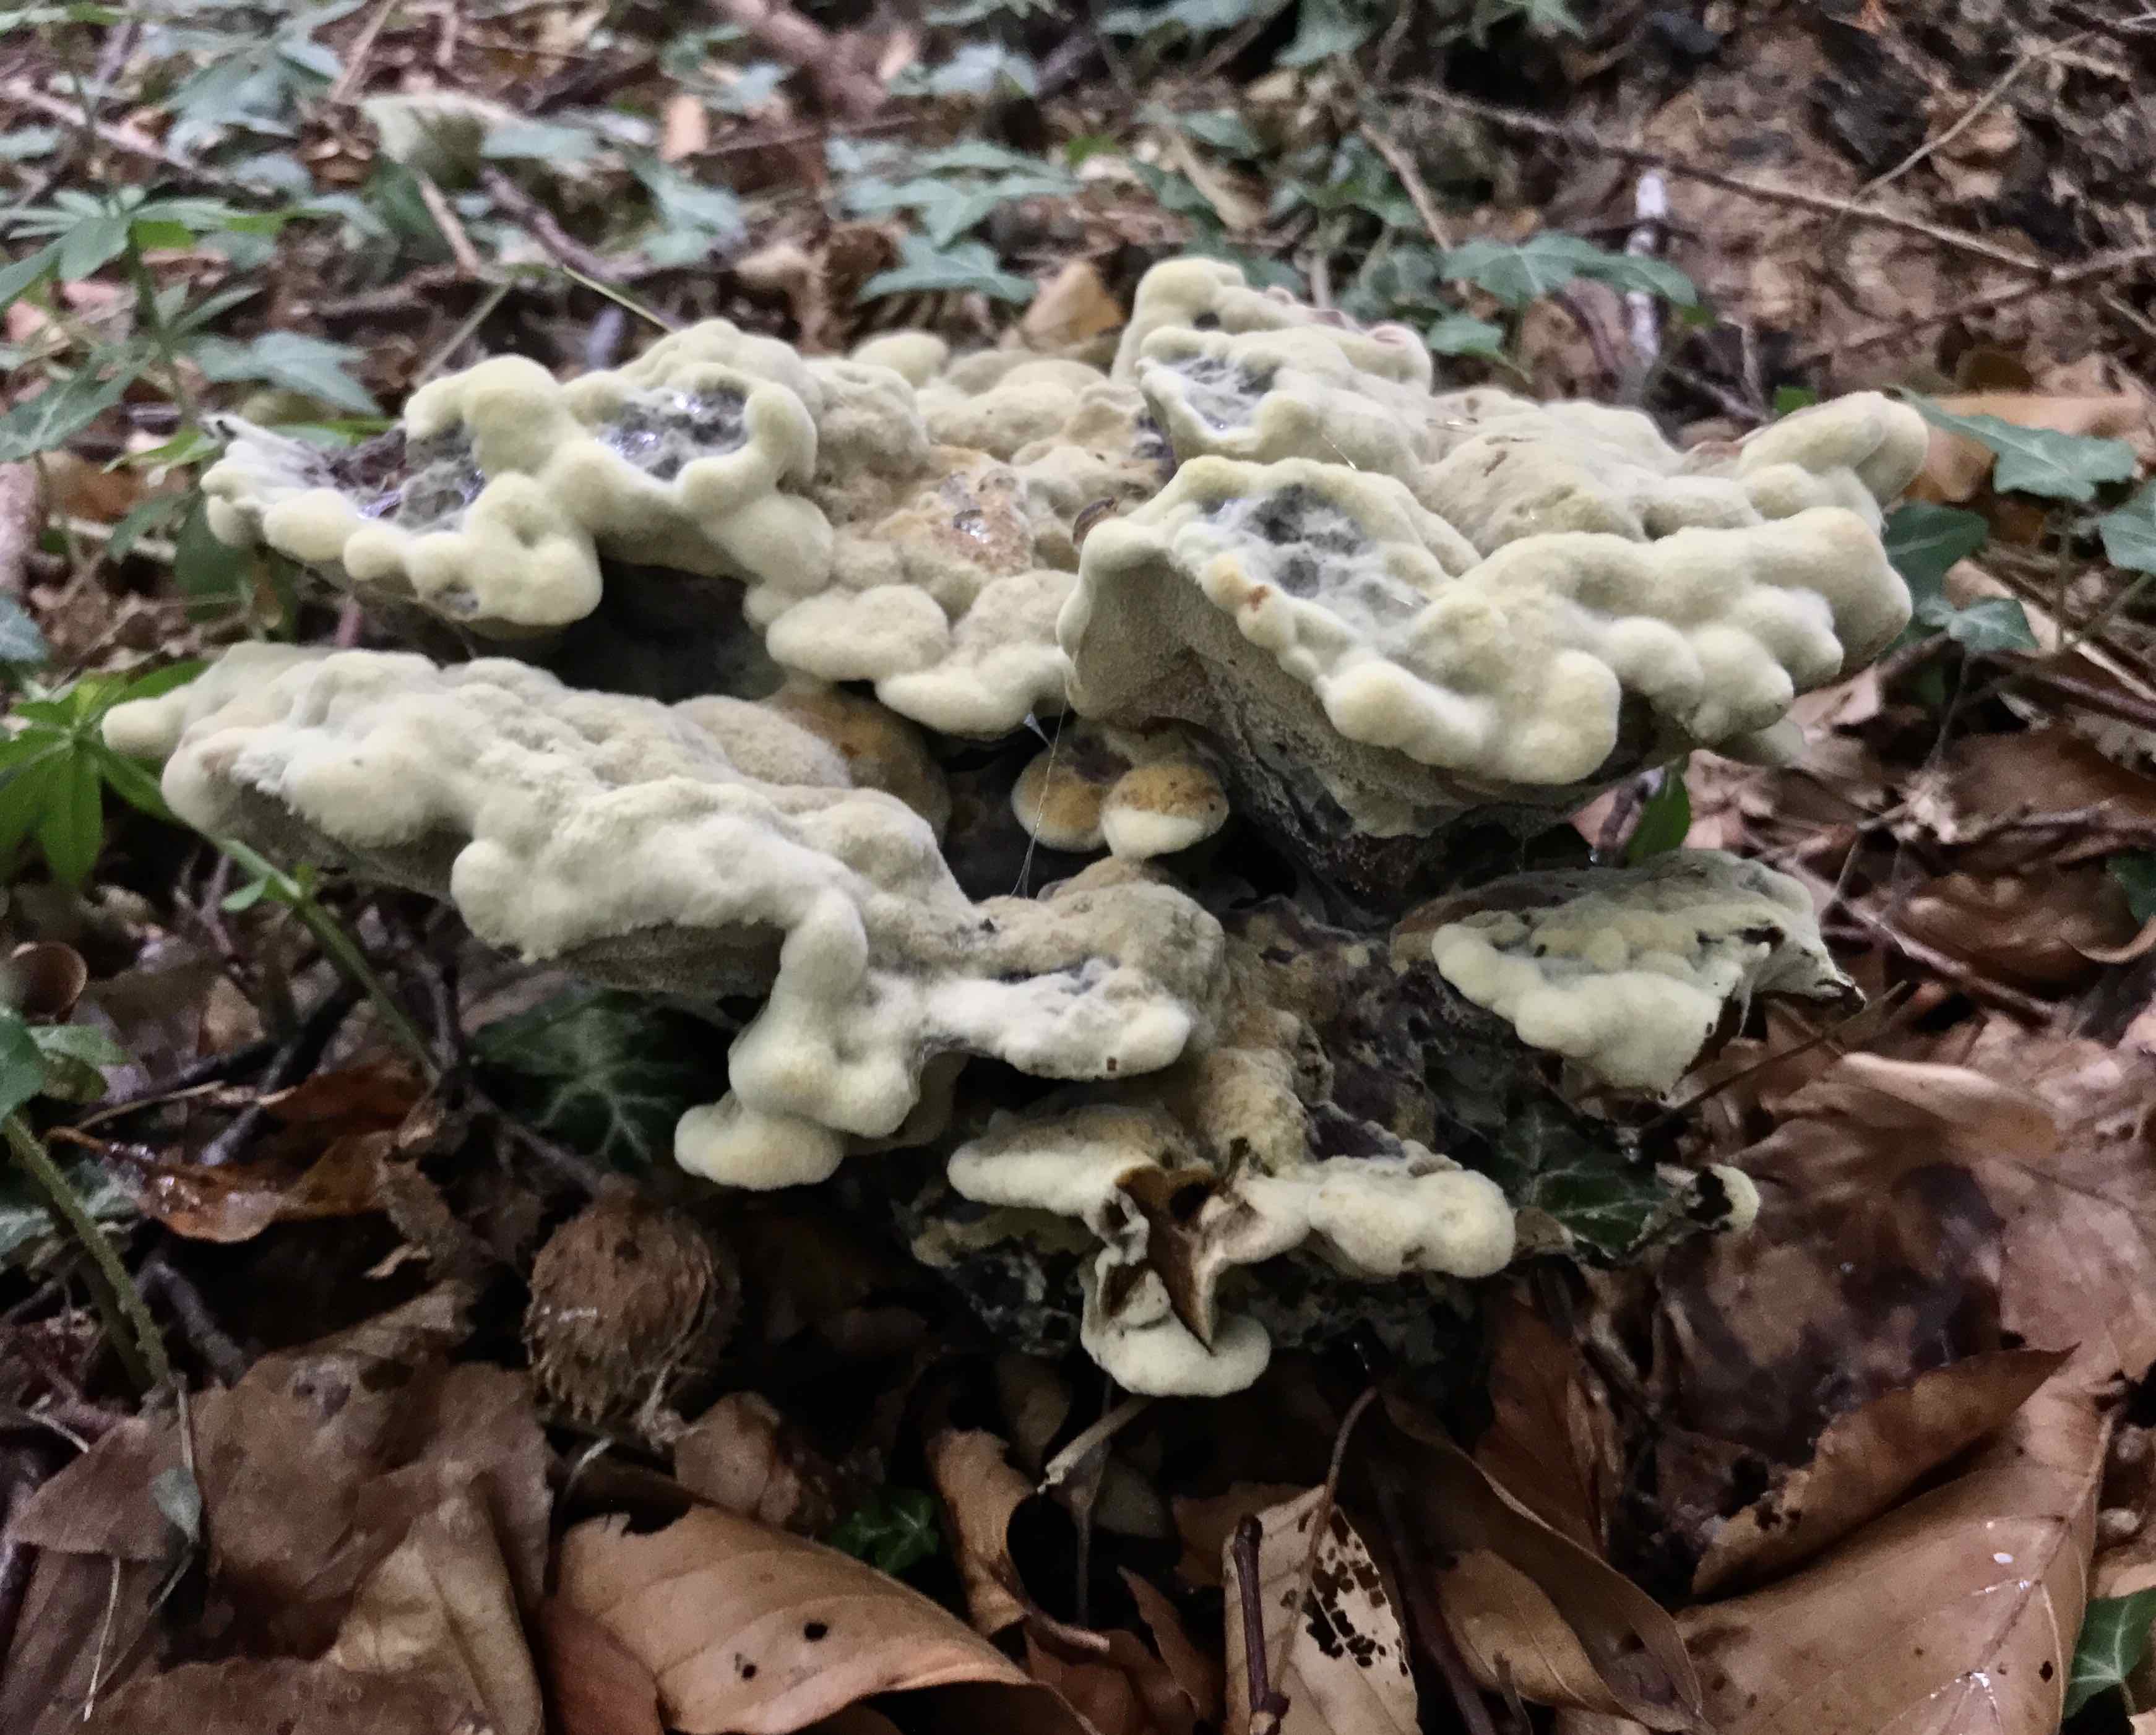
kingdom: Fungi
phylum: Basidiomycota
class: Agaricomycetes
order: Polyporales
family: Laetiporaceae
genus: Phaeolus
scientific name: Phaeolus schweinitzii
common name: brunporesvamp
